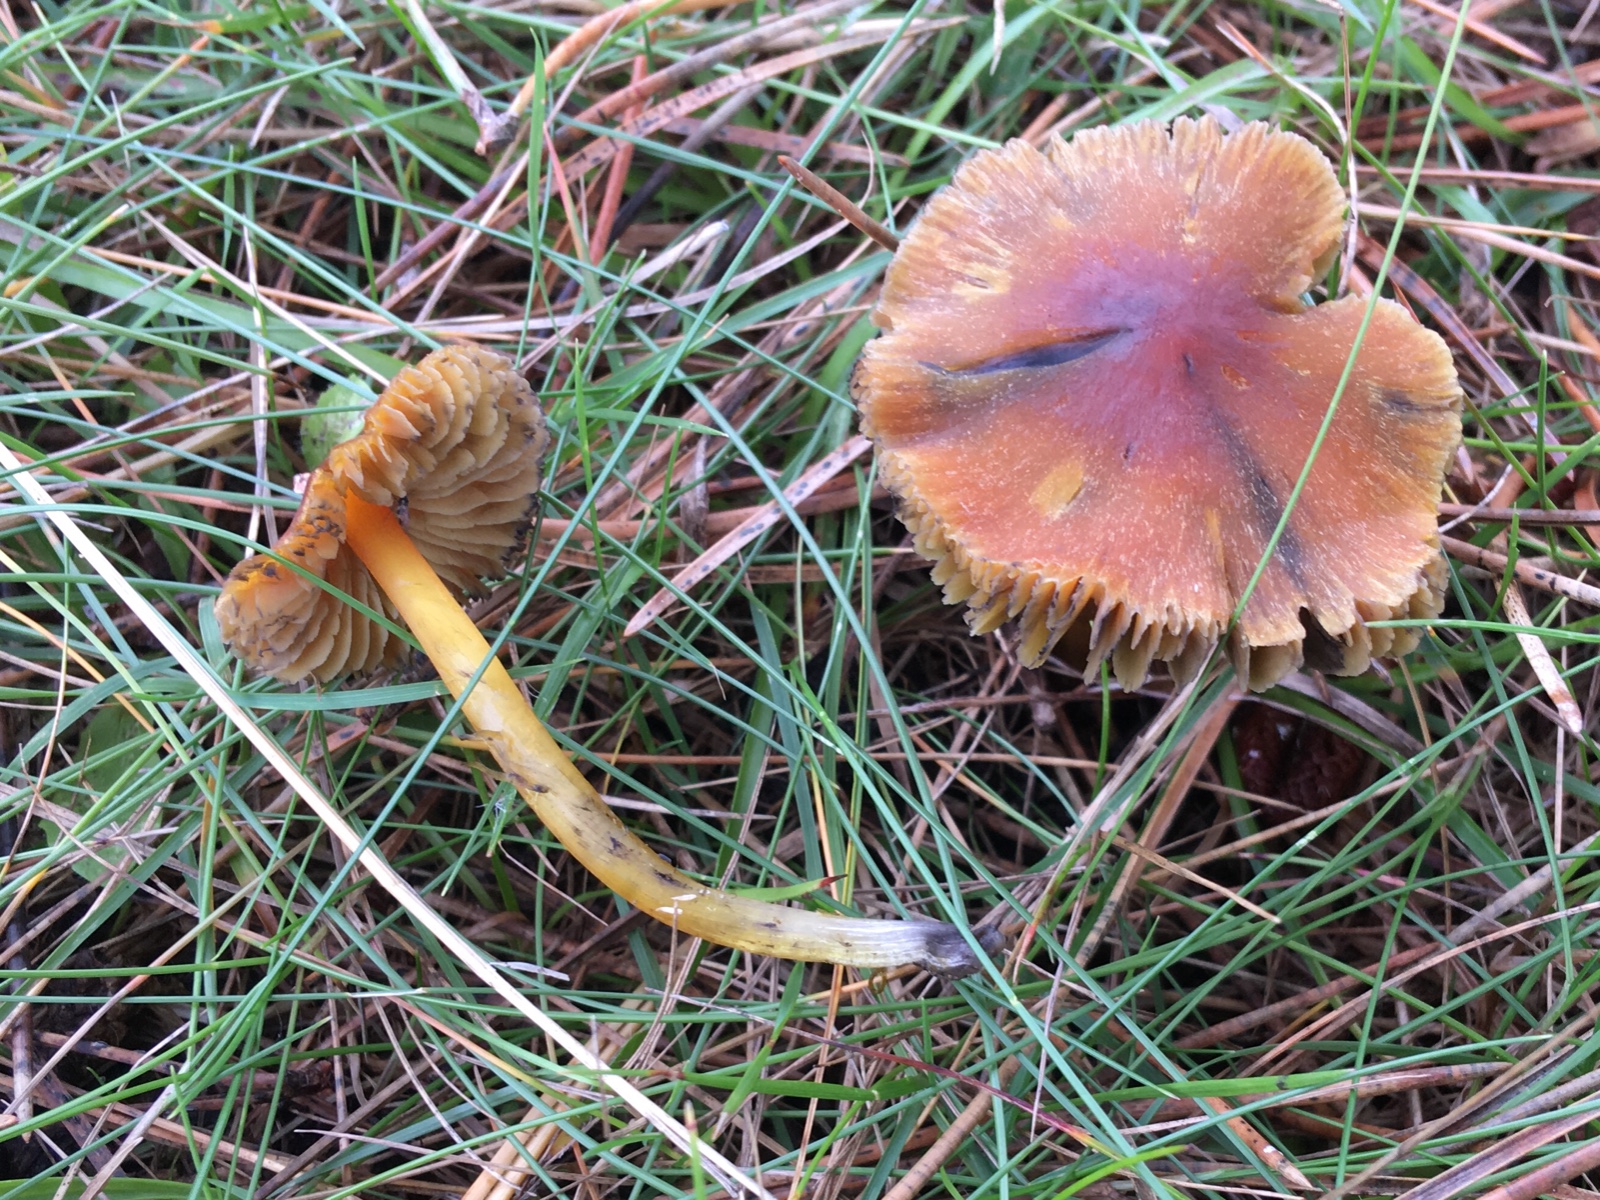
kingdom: Fungi
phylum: Basidiomycota
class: Agaricomycetes
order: Agaricales
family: Hygrophoraceae
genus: Hygrocybe
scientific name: Hygrocybe conica
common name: kegle-vokshat
